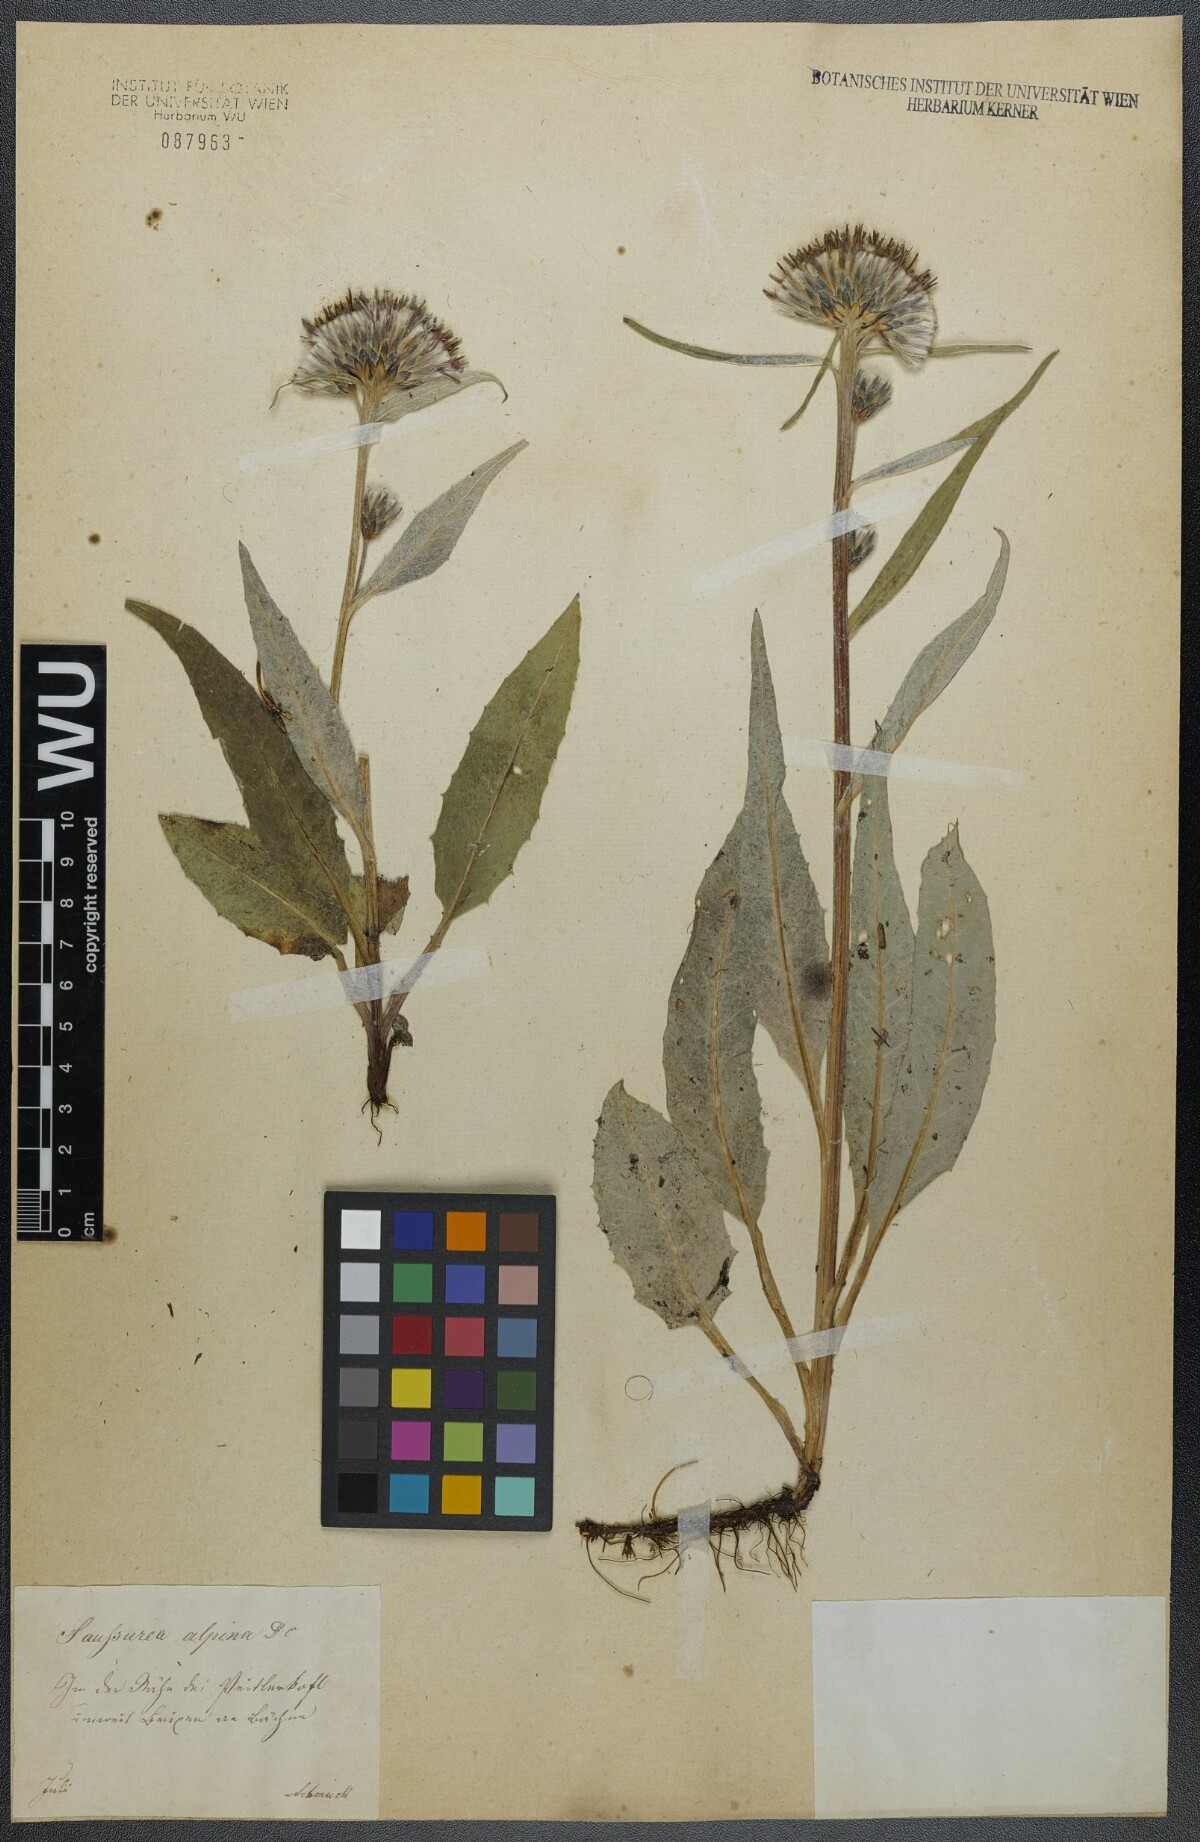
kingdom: Plantae
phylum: Tracheophyta
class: Magnoliopsida
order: Asterales
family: Asteraceae
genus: Saussurea
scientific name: Saussurea alpina
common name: Alpine saw-wort
